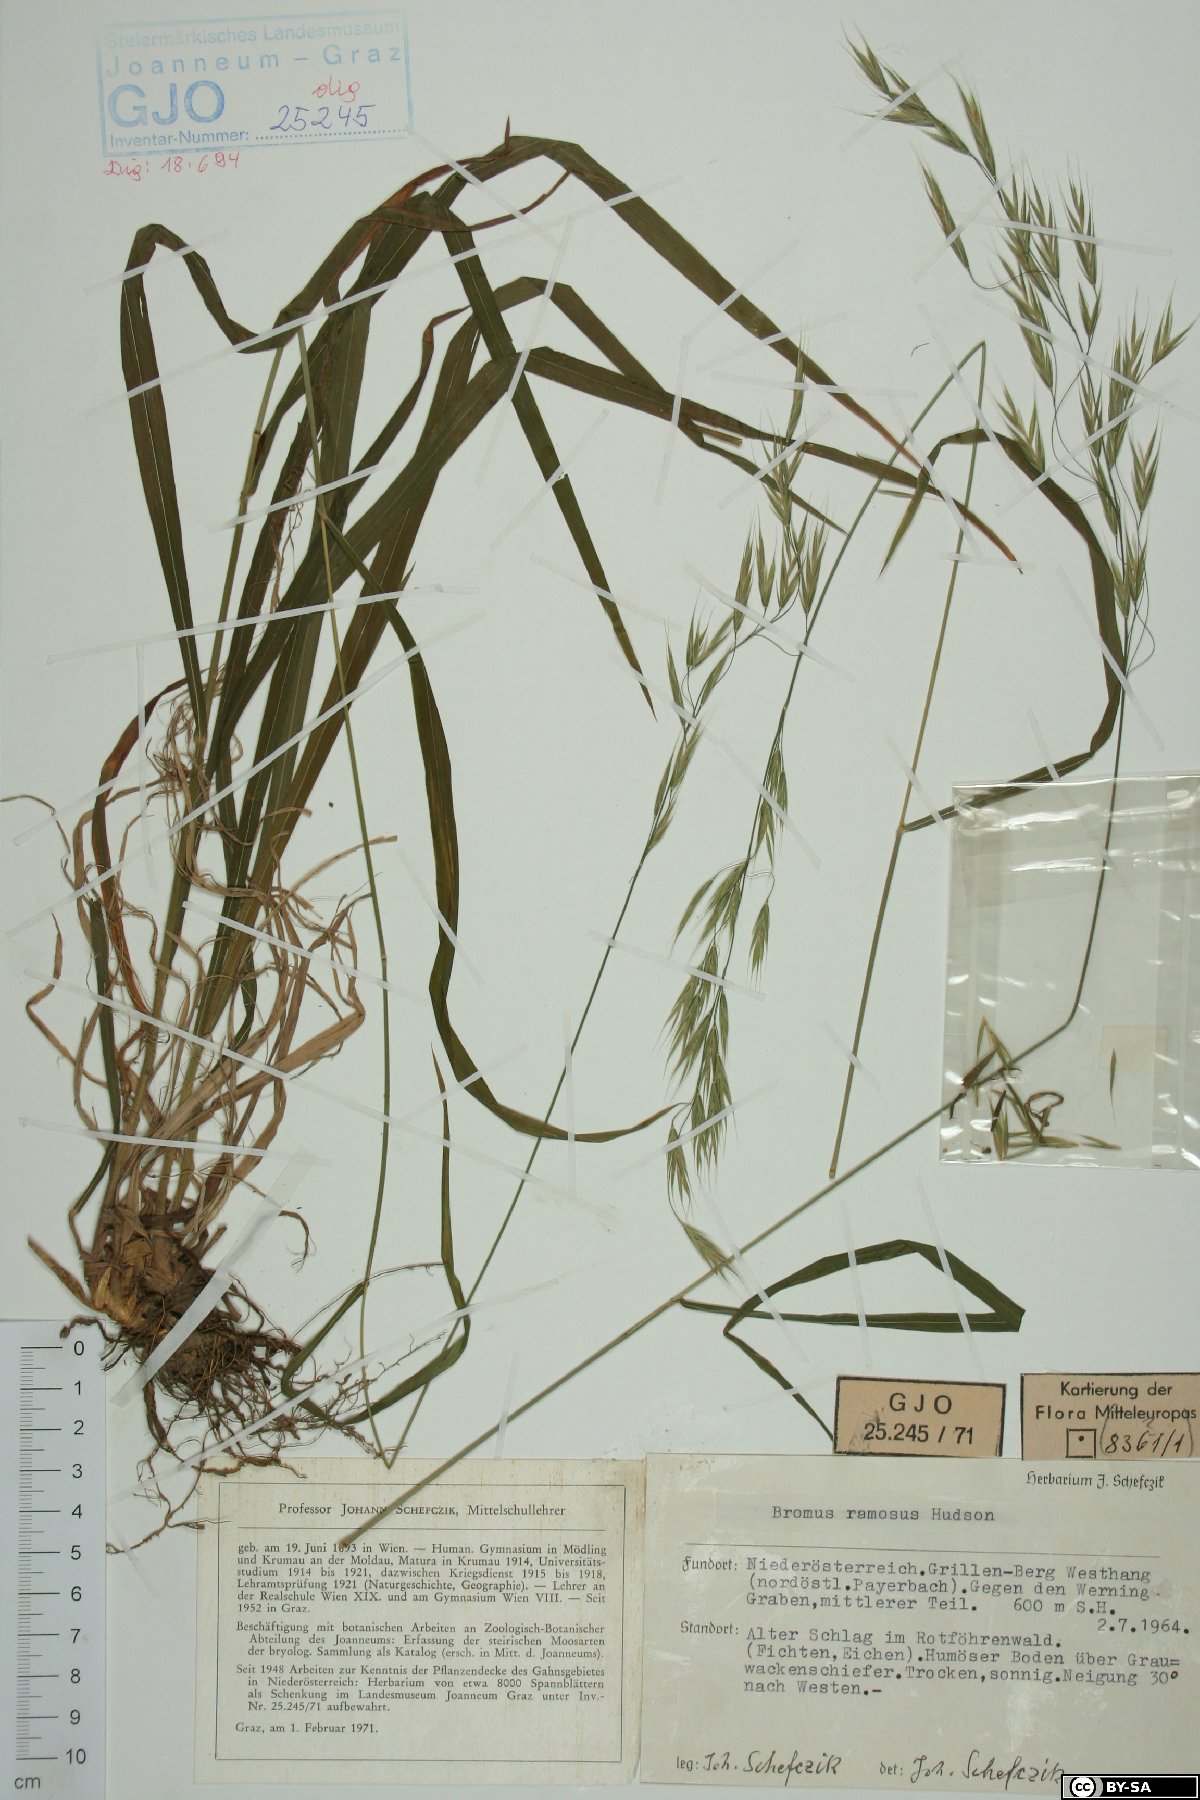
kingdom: Plantae
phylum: Tracheophyta
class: Liliopsida
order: Poales
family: Poaceae
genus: Bromus
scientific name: Bromus ramosus
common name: Hairy brome
